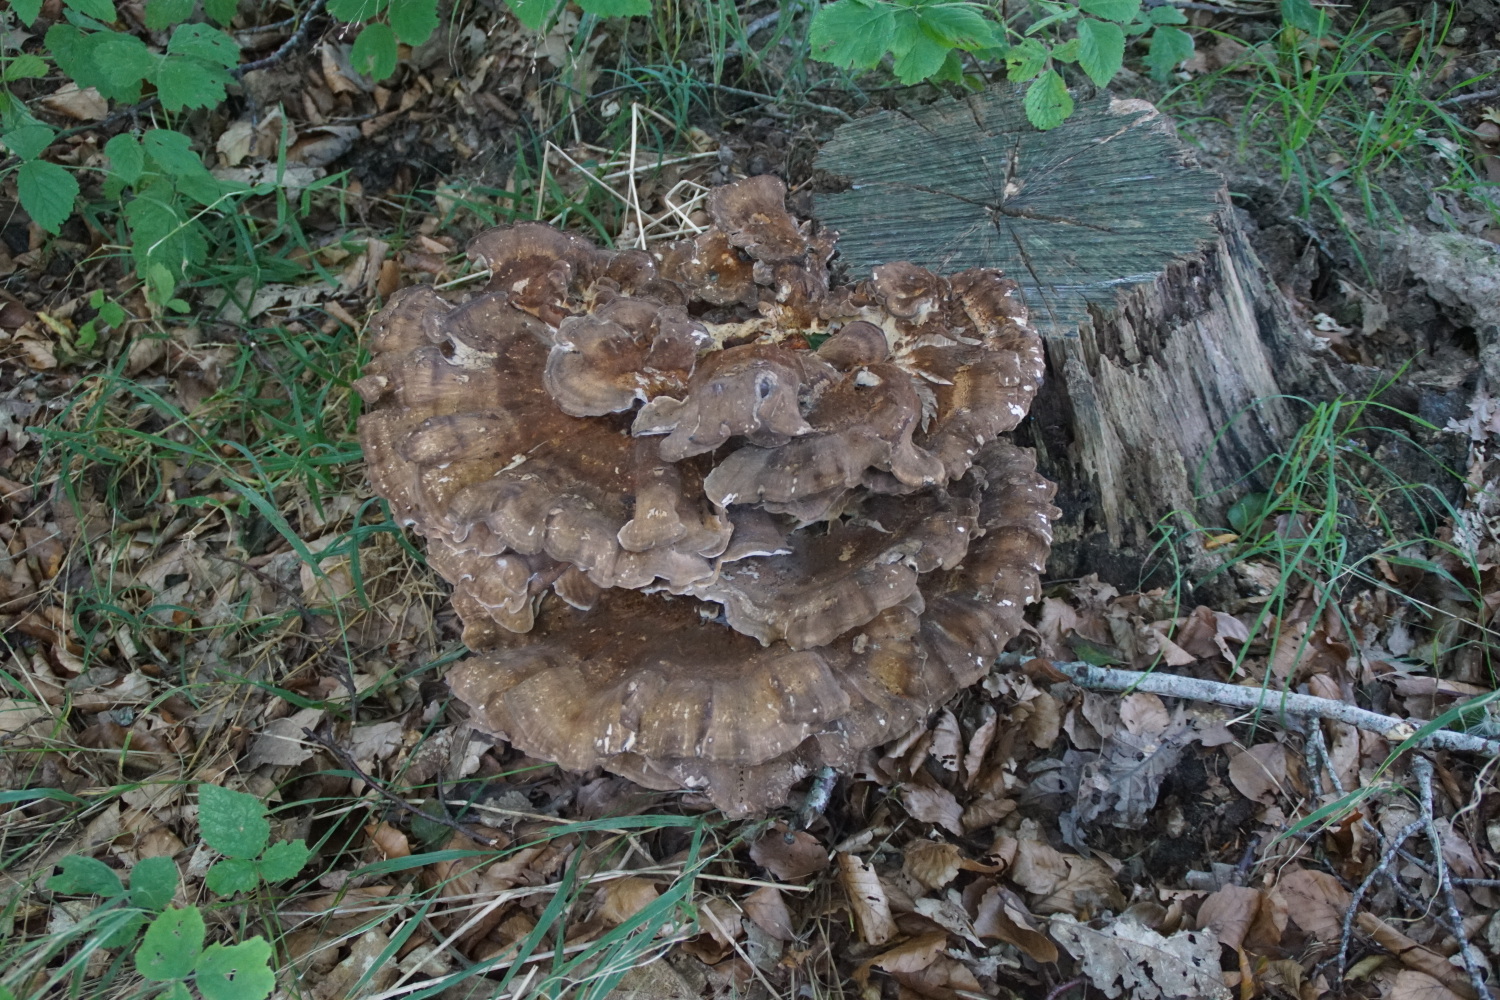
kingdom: Fungi
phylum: Basidiomycota
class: Agaricomycetes
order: Polyporales
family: Meripilaceae
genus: Meripilus
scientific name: Meripilus giganteus
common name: kæmpeporesvamp
